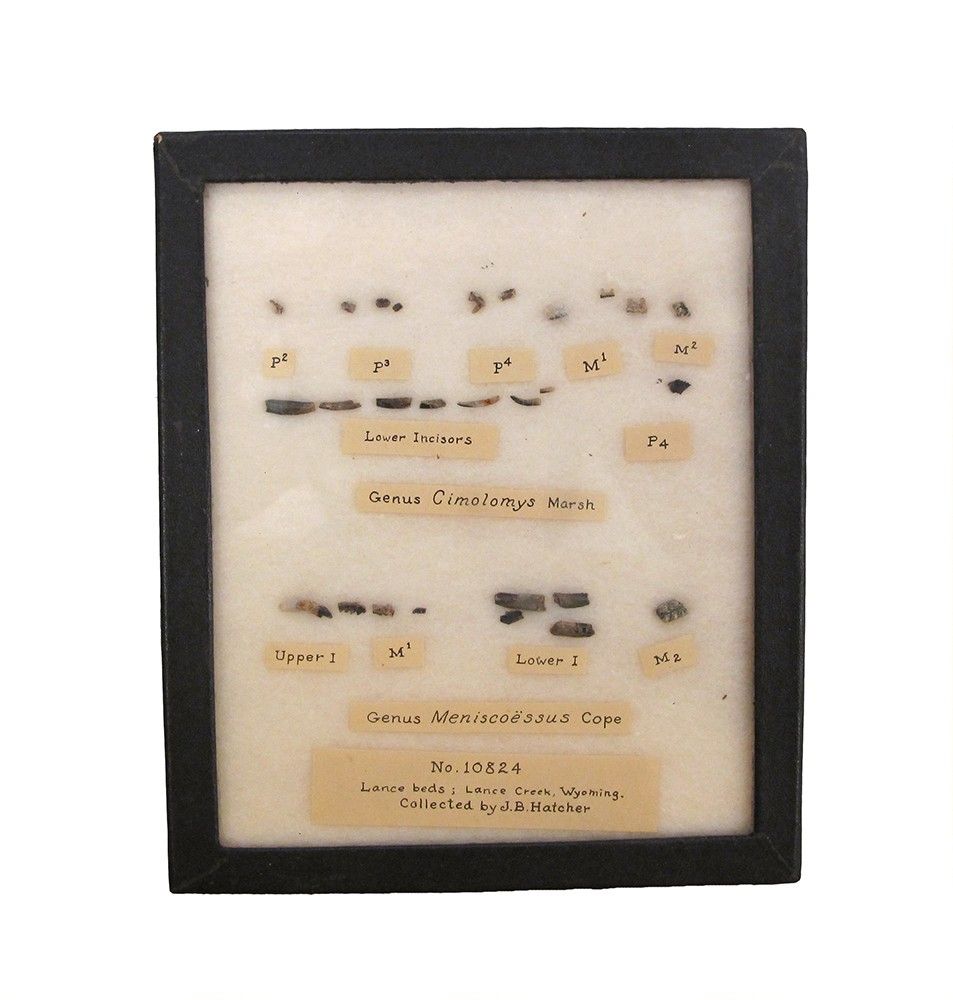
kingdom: Animalia
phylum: Chordata
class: Mammalia
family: Taeniolabididae
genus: Meniscoessus
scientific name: Meniscoessus
